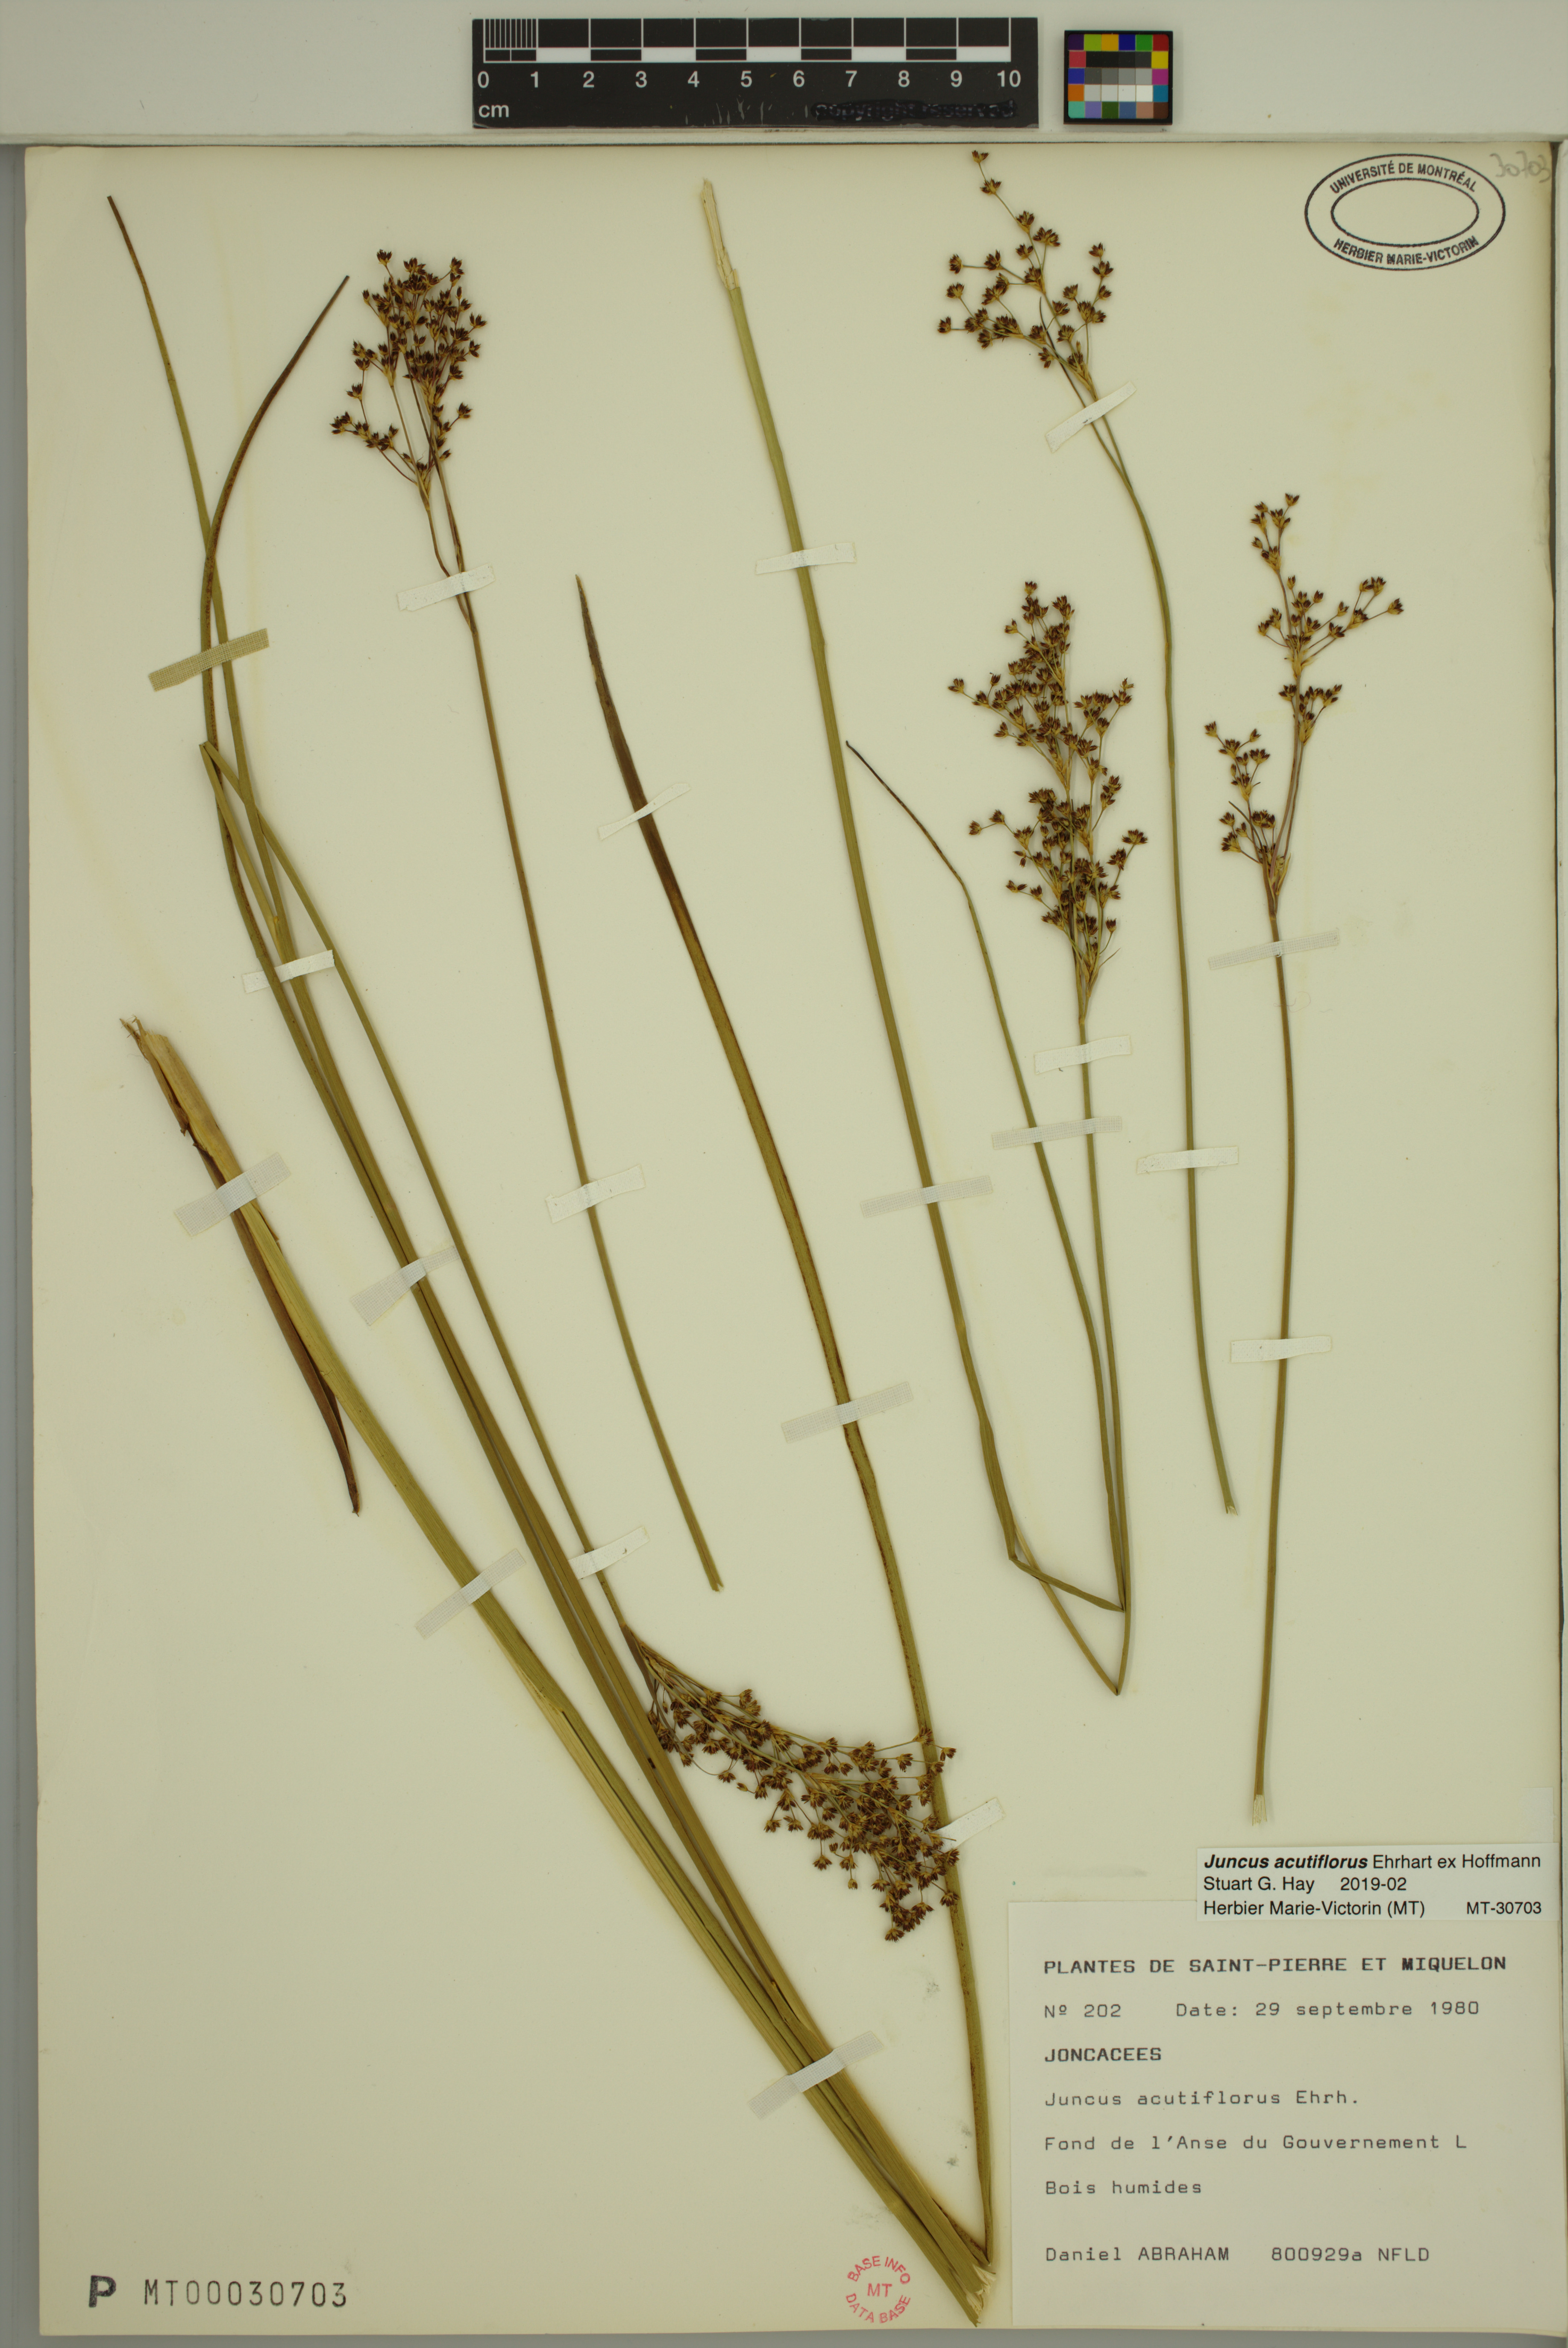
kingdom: Plantae
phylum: Tracheophyta
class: Liliopsida
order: Poales
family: Juncaceae
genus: Juncus
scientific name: Juncus acutiflorus
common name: Sharp-flowered rush
